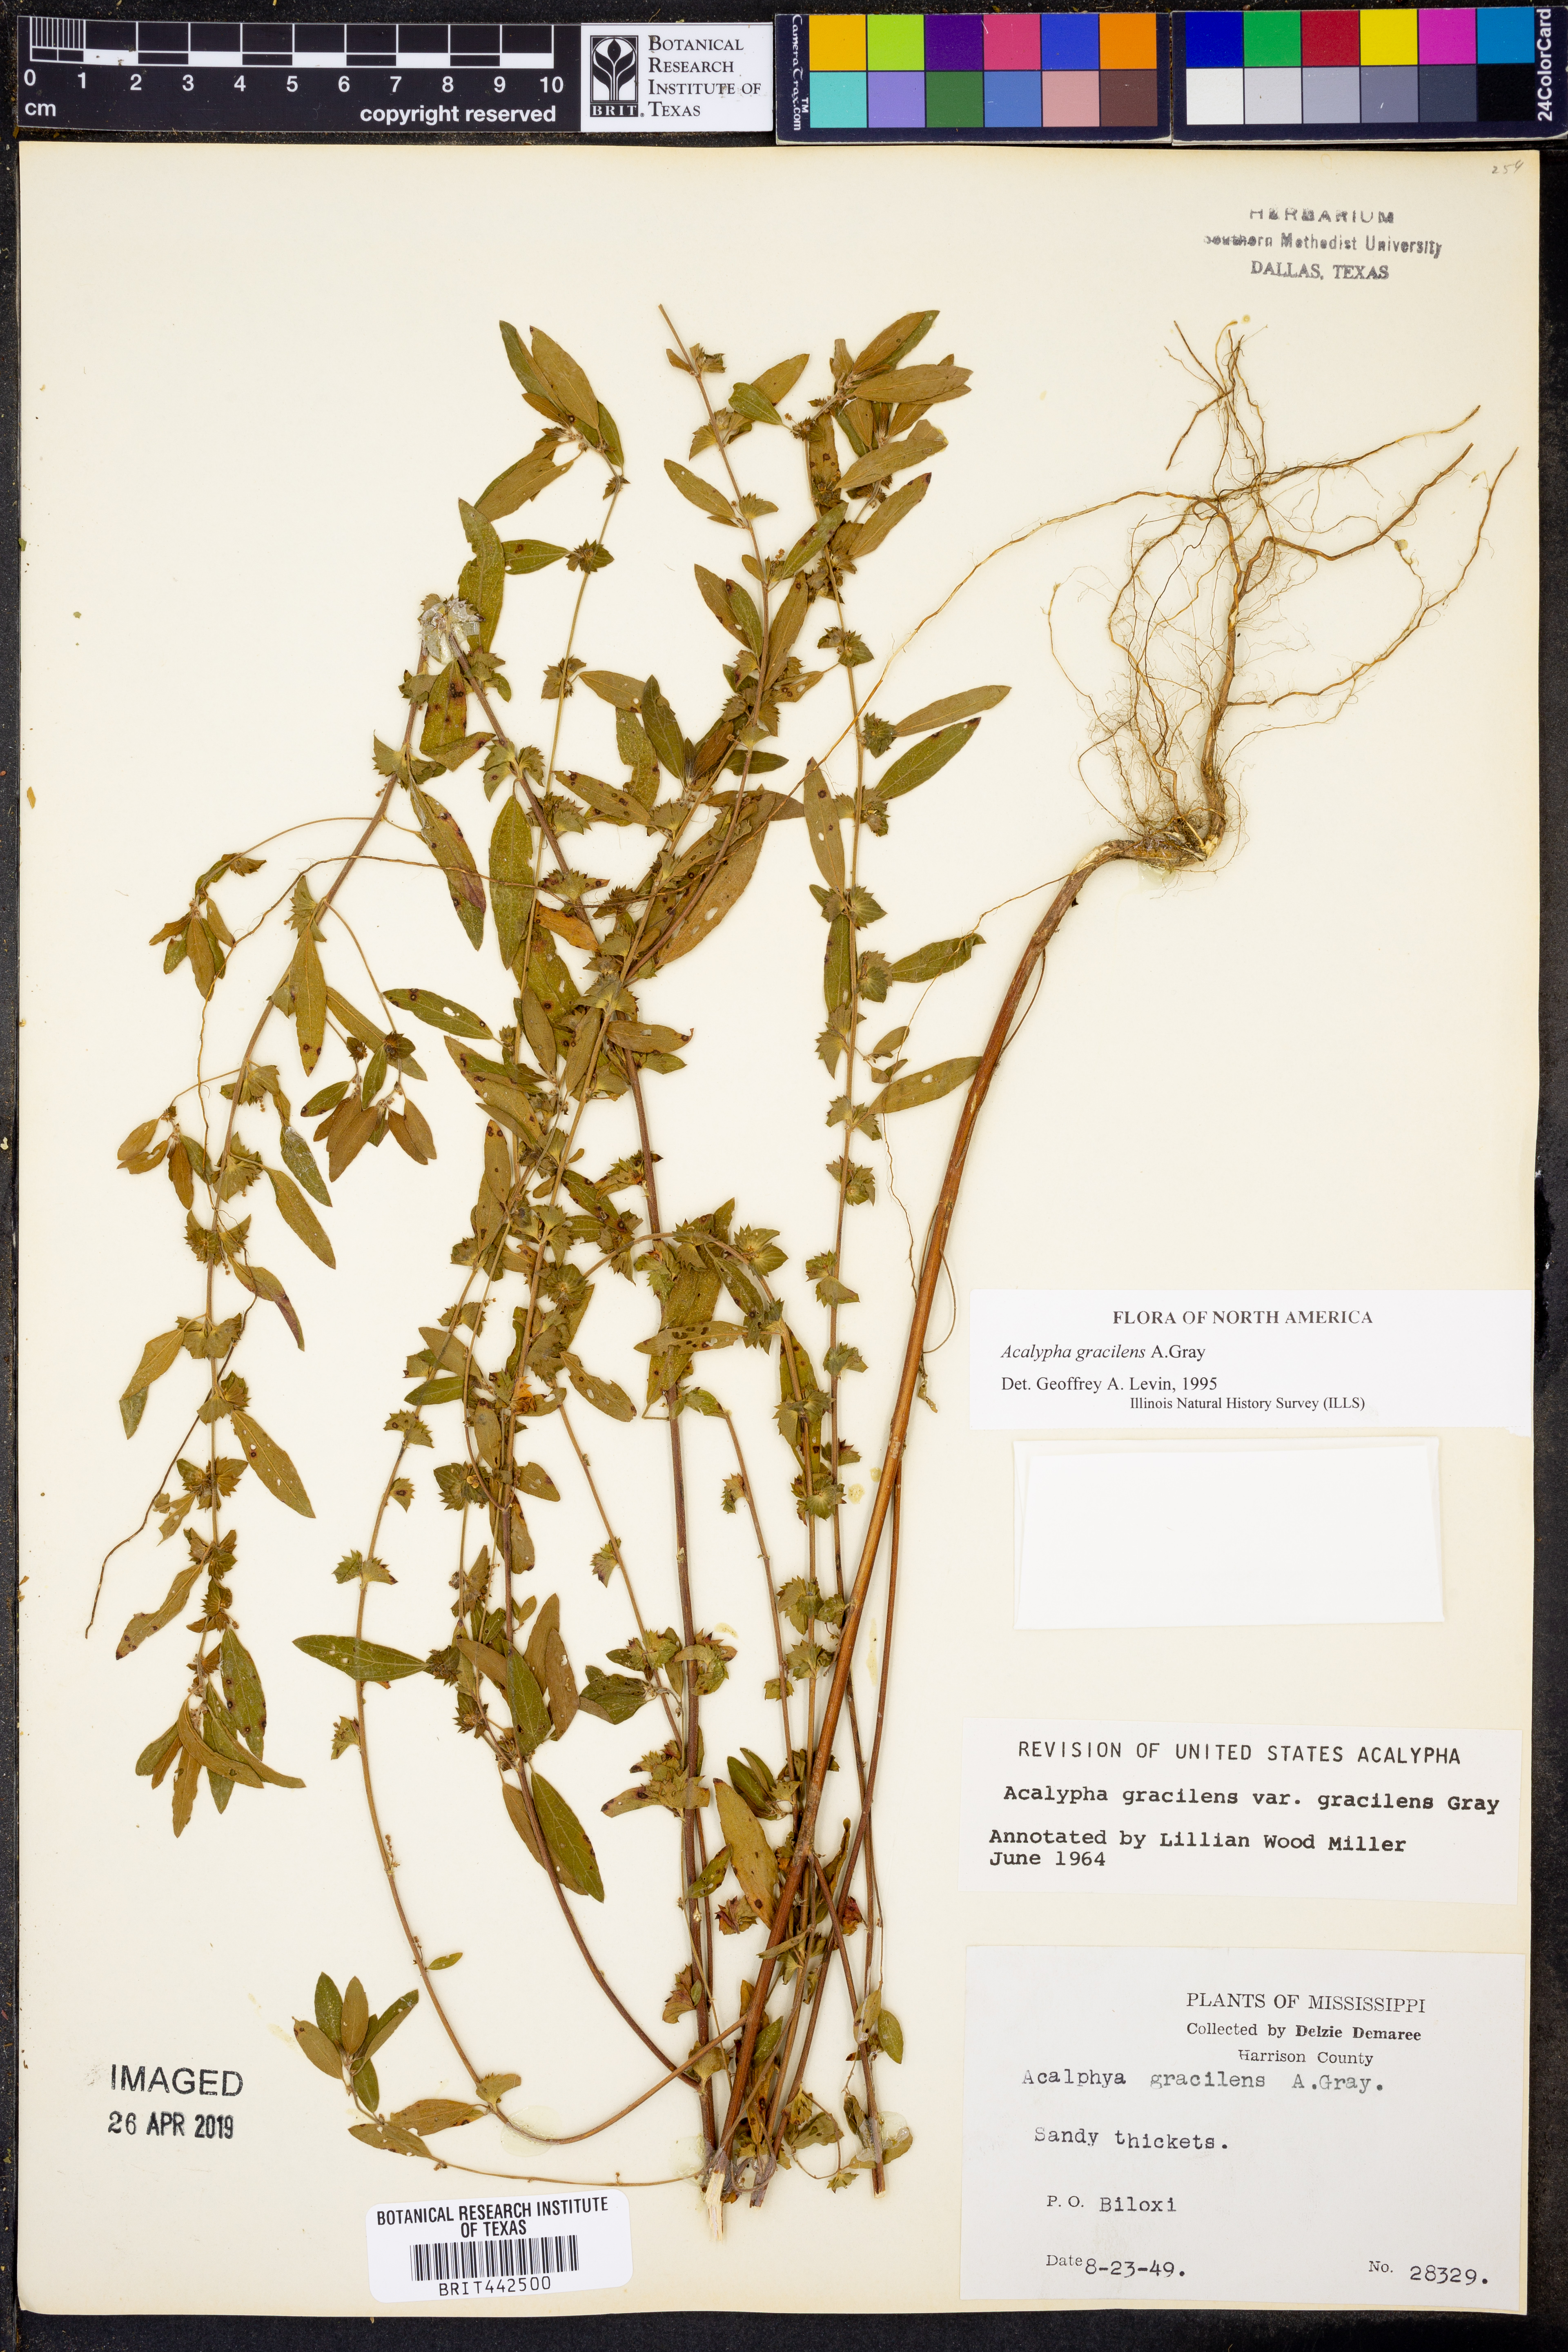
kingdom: Plantae
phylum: Tracheophyta
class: Magnoliopsida
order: Malpighiales
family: Euphorbiaceae
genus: Acalypha
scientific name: Acalypha gracilens
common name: Slender three-seeded mercury
